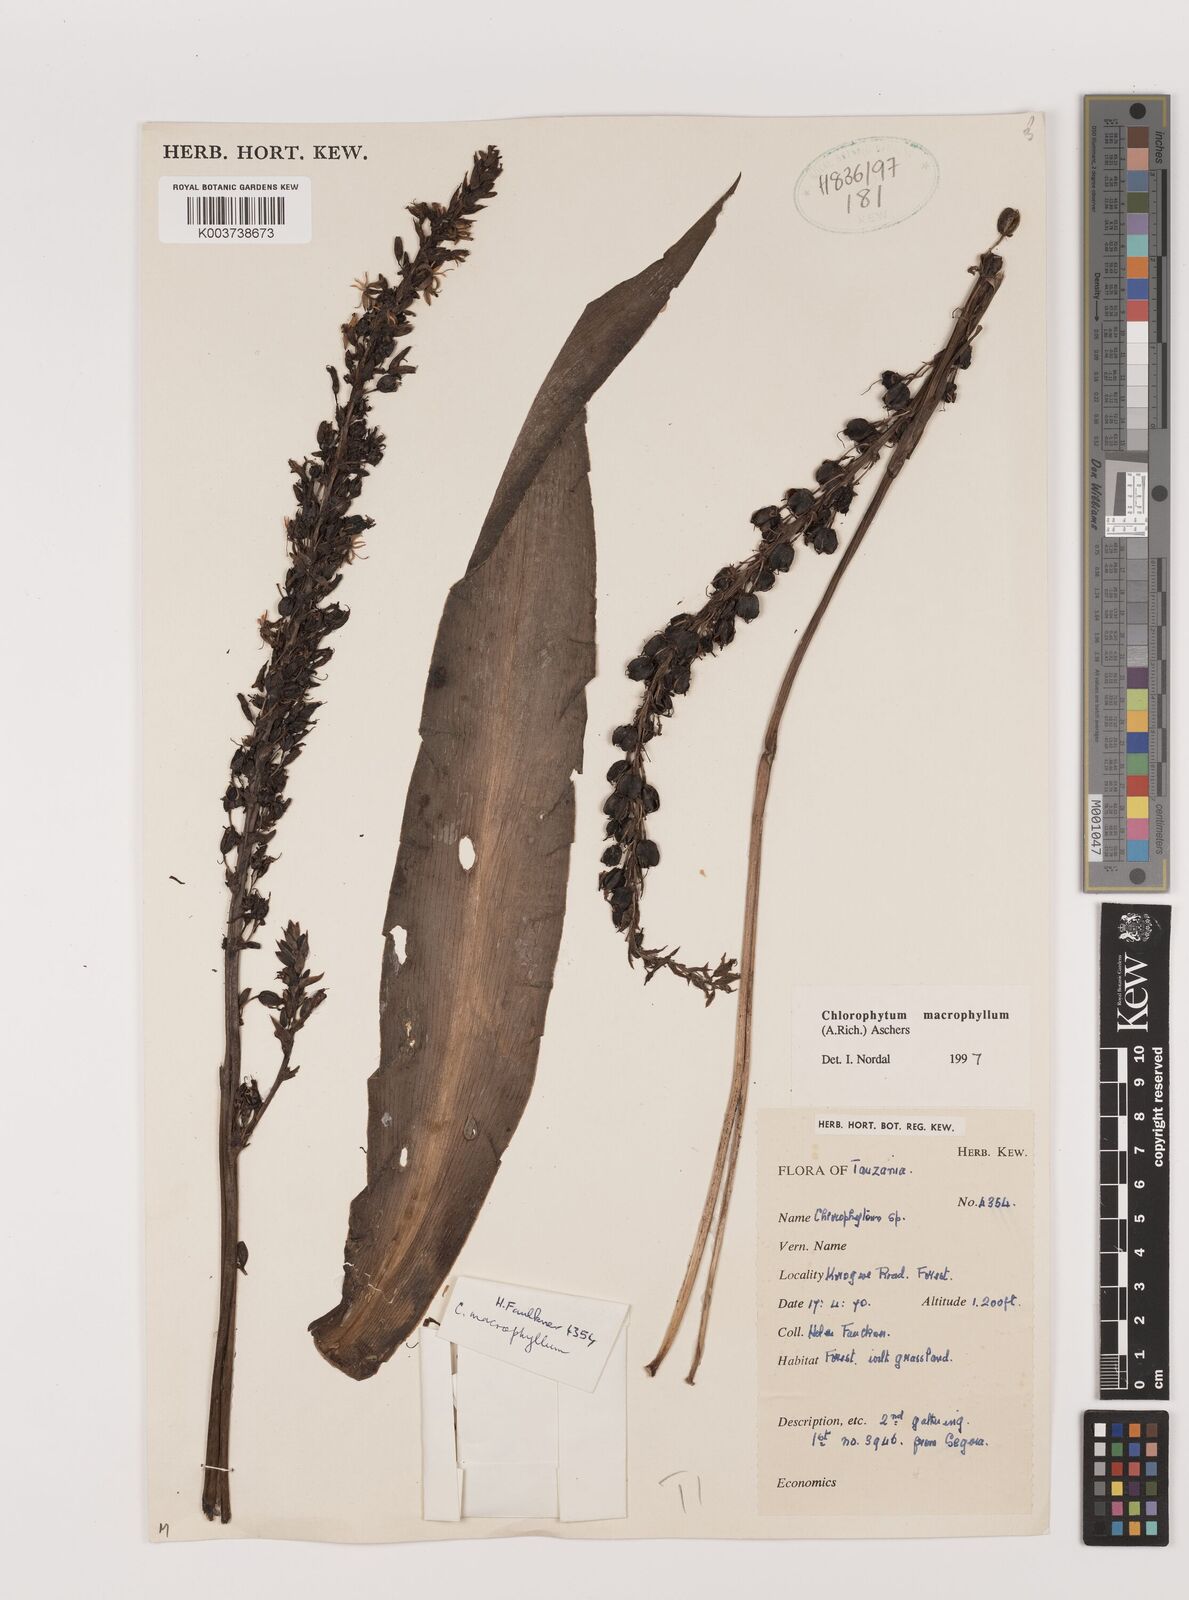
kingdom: Plantae
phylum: Tracheophyta
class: Liliopsida
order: Asparagales
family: Asparagaceae
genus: Chlorophytum
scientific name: Chlorophytum macrophyllum
